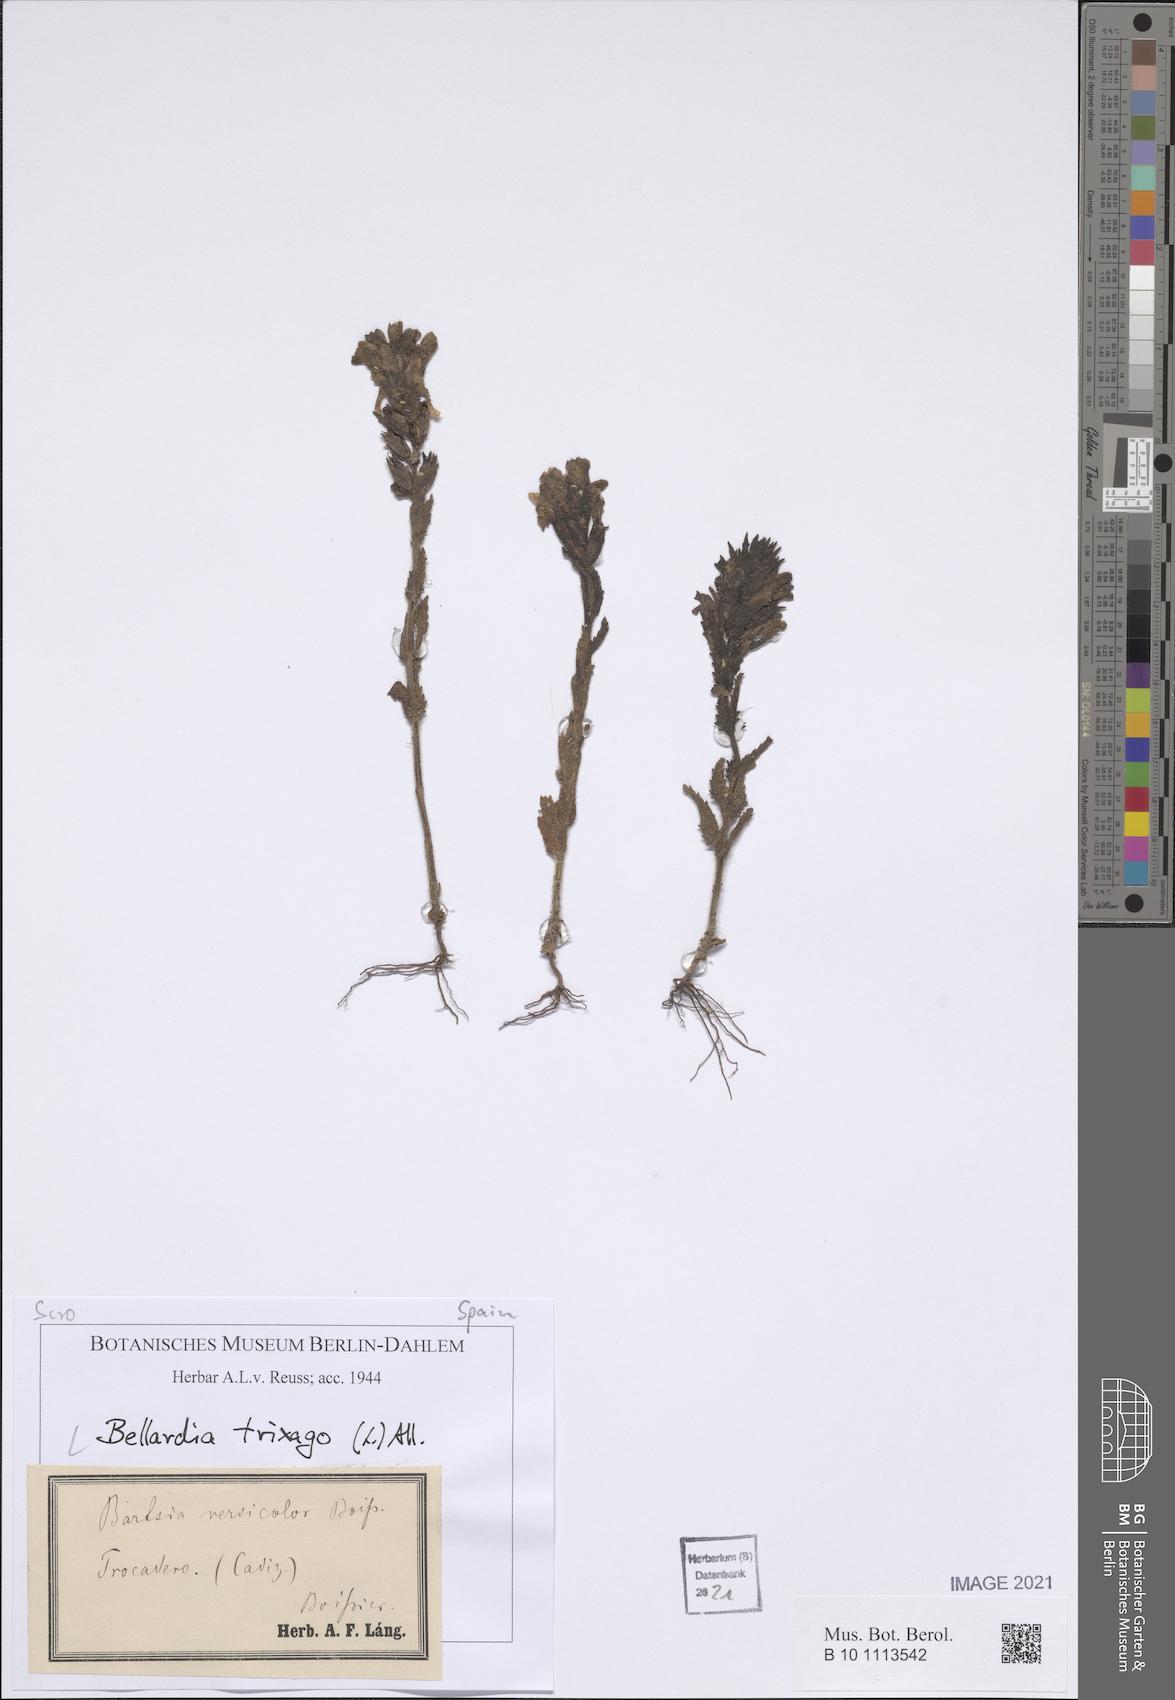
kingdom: Plantae
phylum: Tracheophyta
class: Magnoliopsida
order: Lamiales
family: Orobanchaceae
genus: Bellardia
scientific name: Bellardia trixago
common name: Mediterranean lineseed
